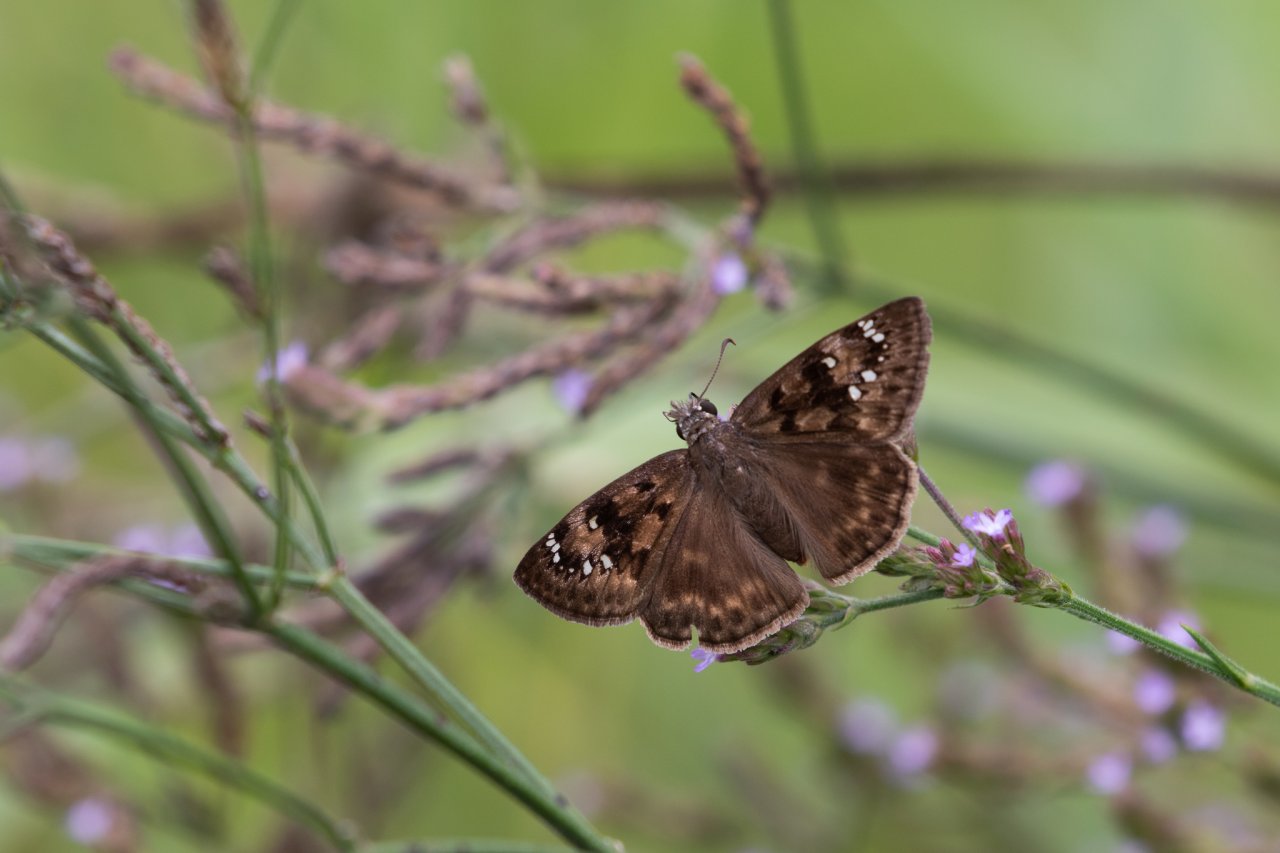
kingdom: Animalia
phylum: Arthropoda
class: Insecta
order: Lepidoptera
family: Hesperiidae
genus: Gesta
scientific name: Gesta
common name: Horace's Duskywing
